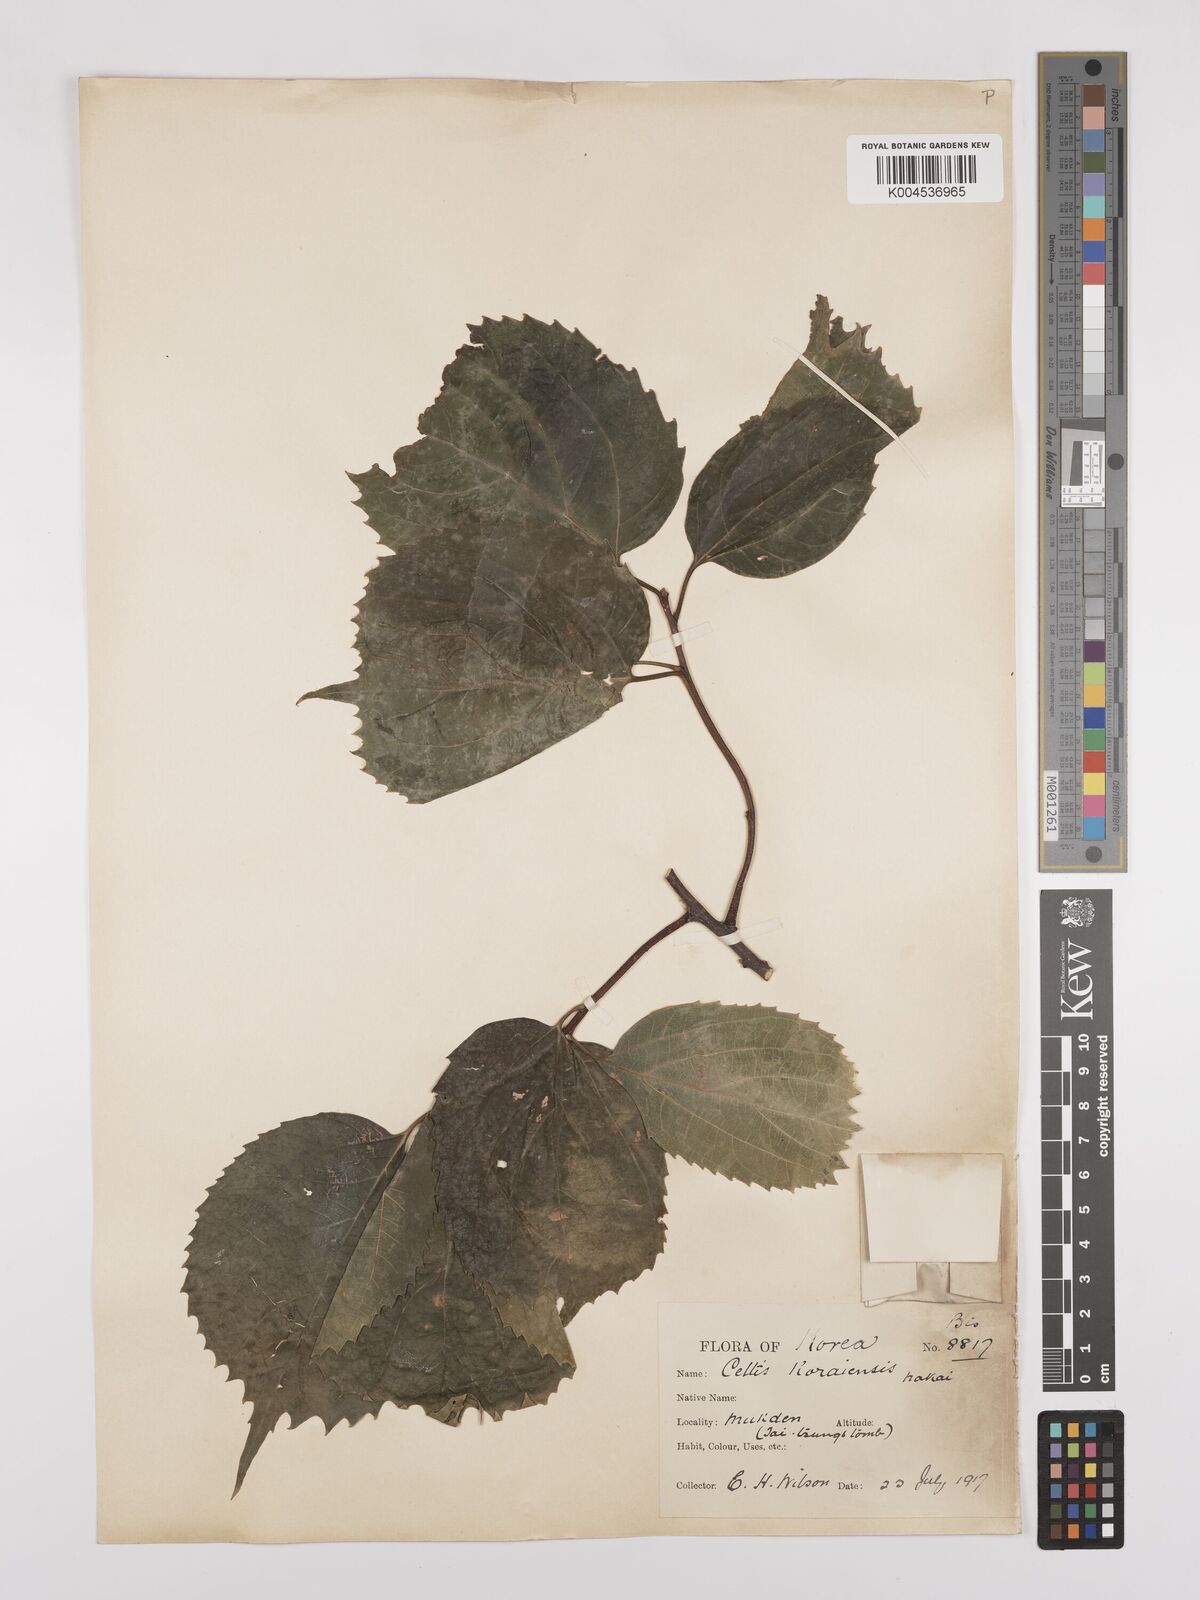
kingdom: Plantae
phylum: Tracheophyta
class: Magnoliopsida
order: Rosales
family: Cannabaceae
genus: Celtis
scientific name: Celtis koraiensis
